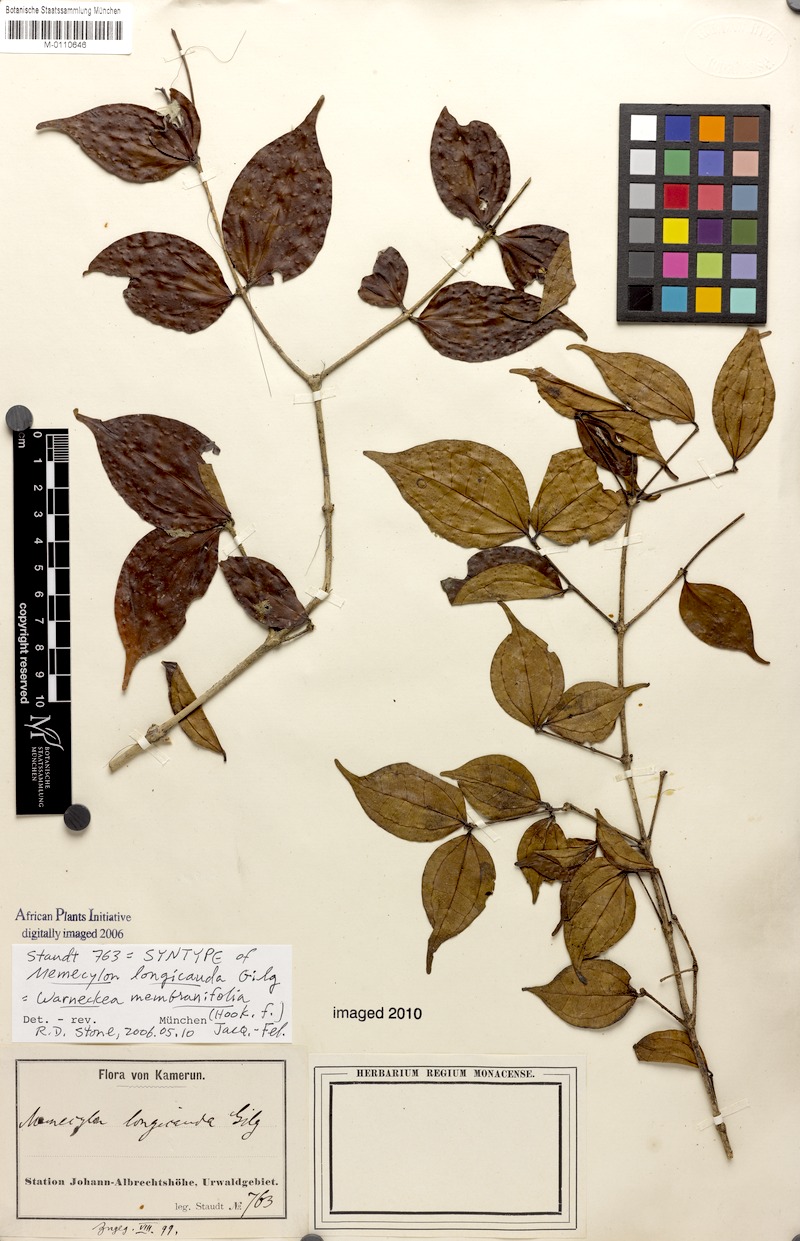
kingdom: Plantae
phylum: Tracheophyta
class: Magnoliopsida
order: Myrtales
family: Melastomataceae
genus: Warneckea
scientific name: Warneckea membranifolia
